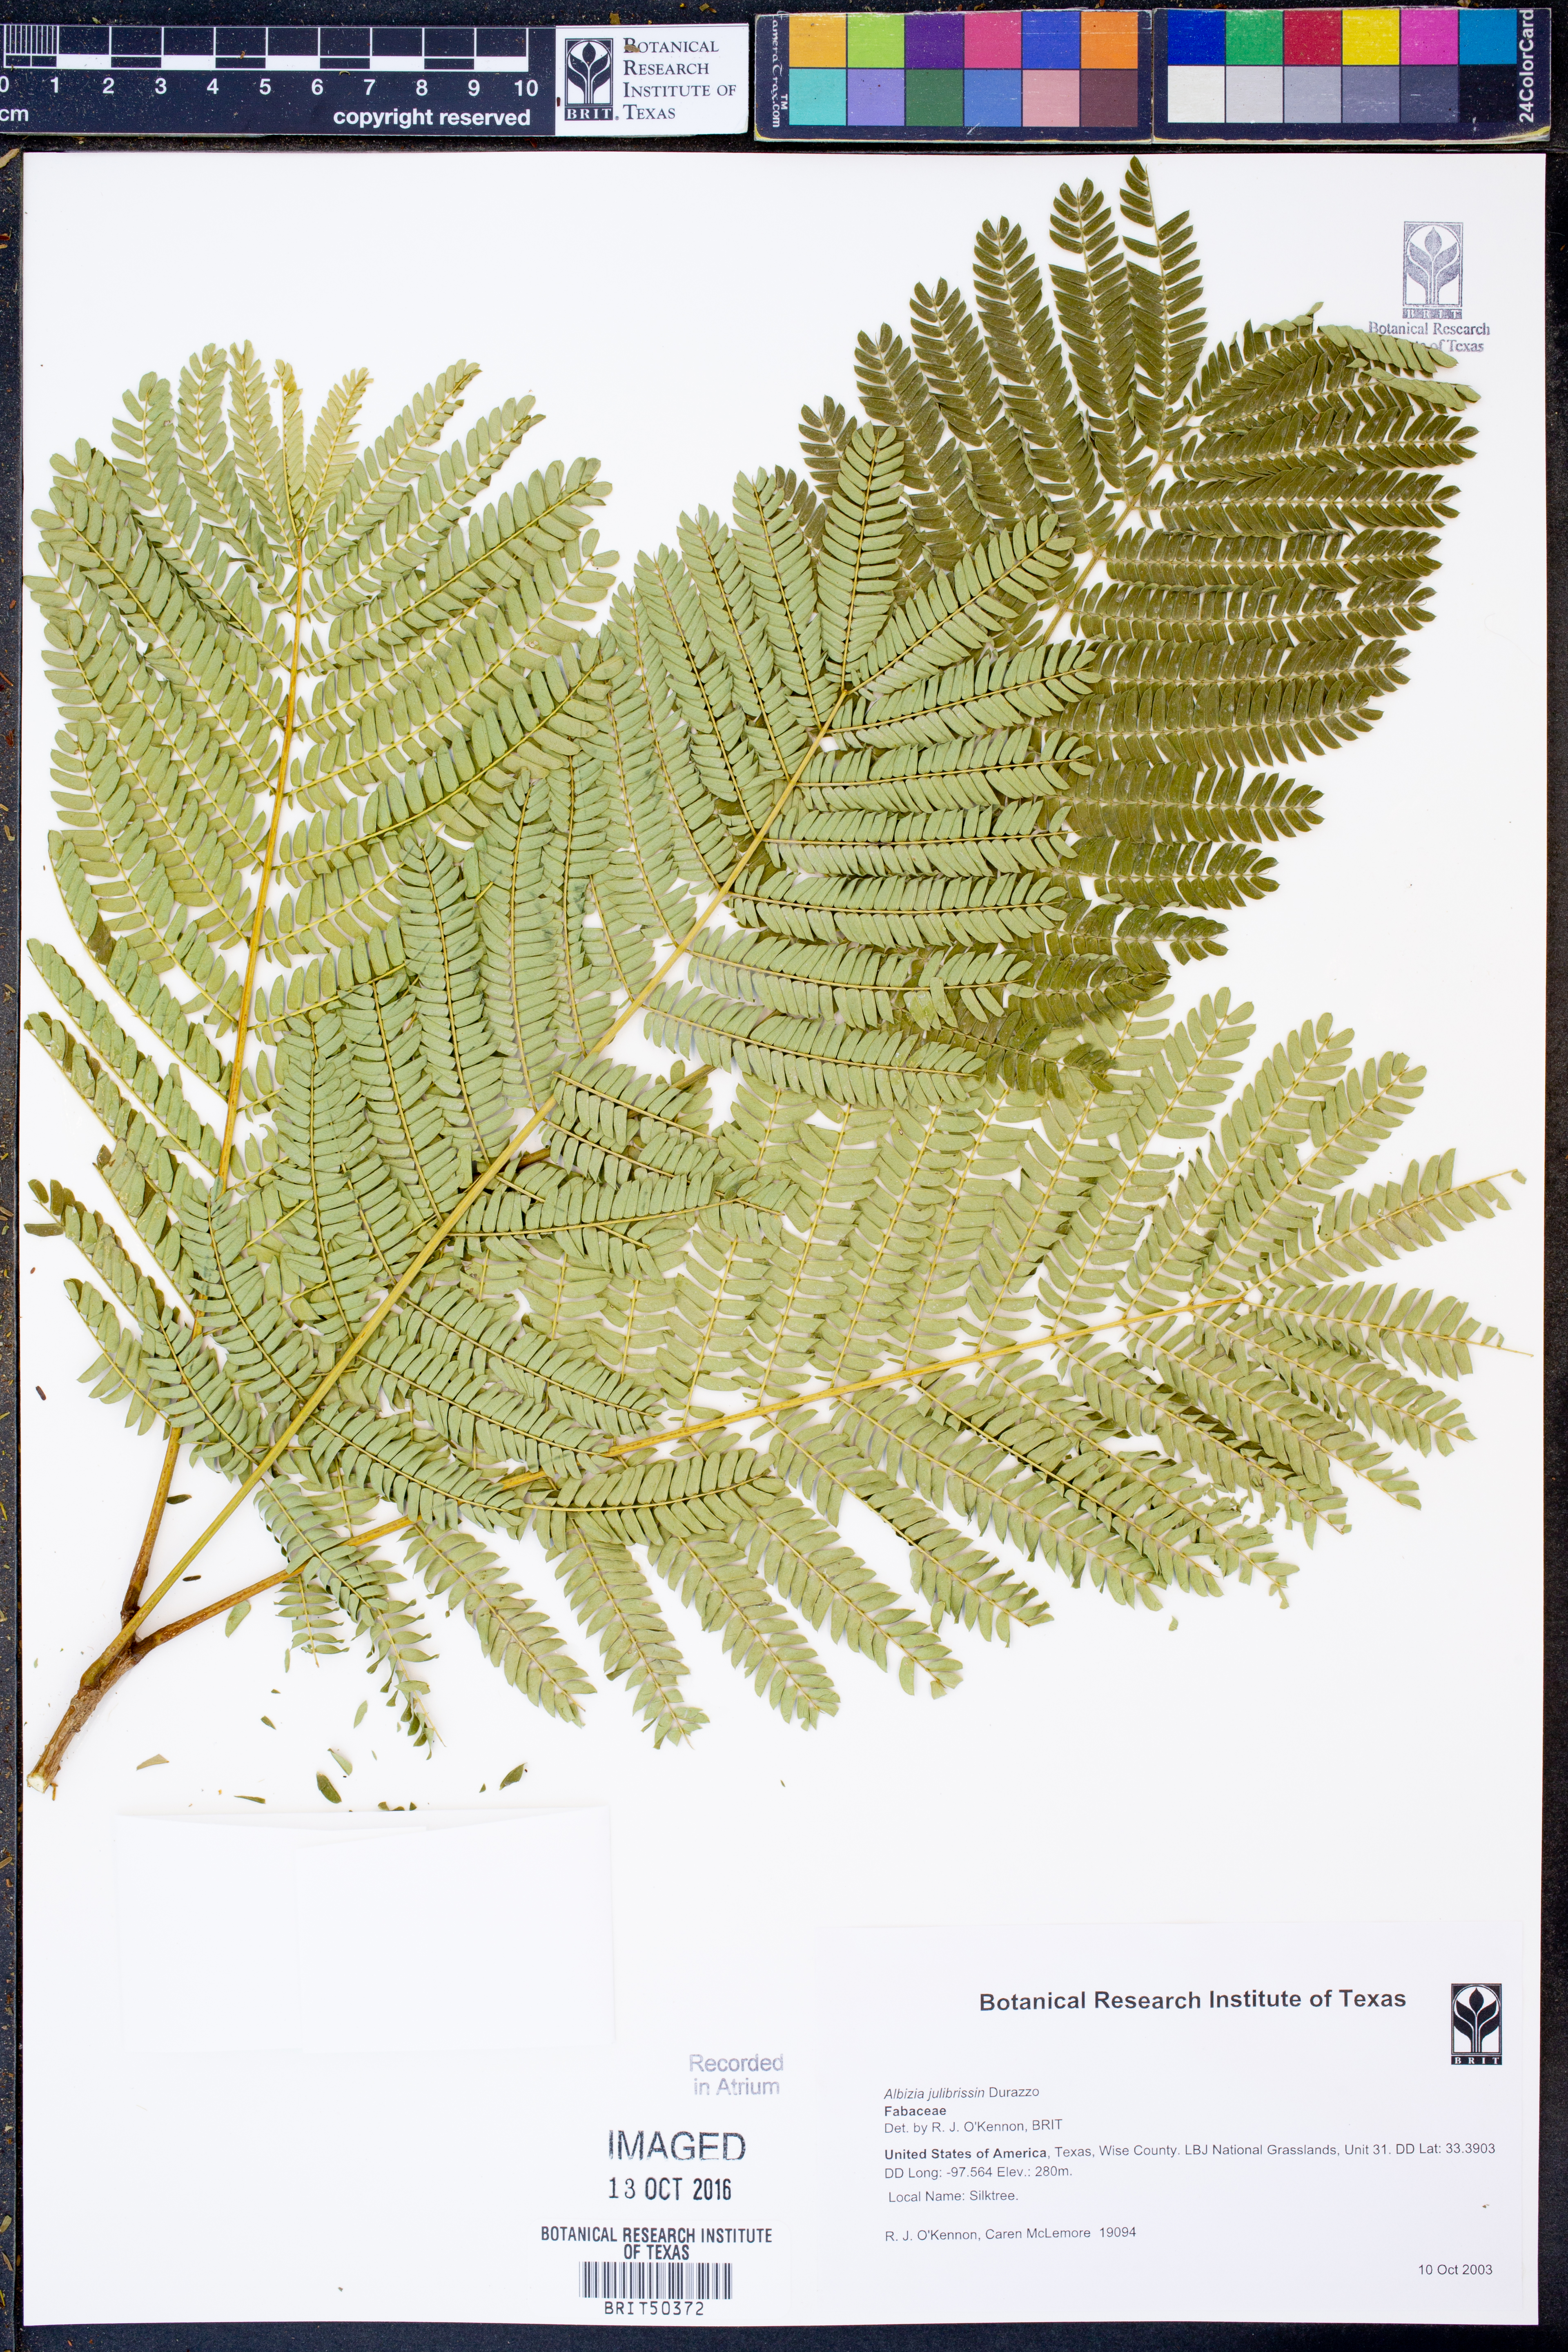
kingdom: Plantae
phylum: Tracheophyta
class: Magnoliopsida
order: Fabales
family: Fabaceae
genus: Albizia
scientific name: Albizia julibrissin
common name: Silktree
